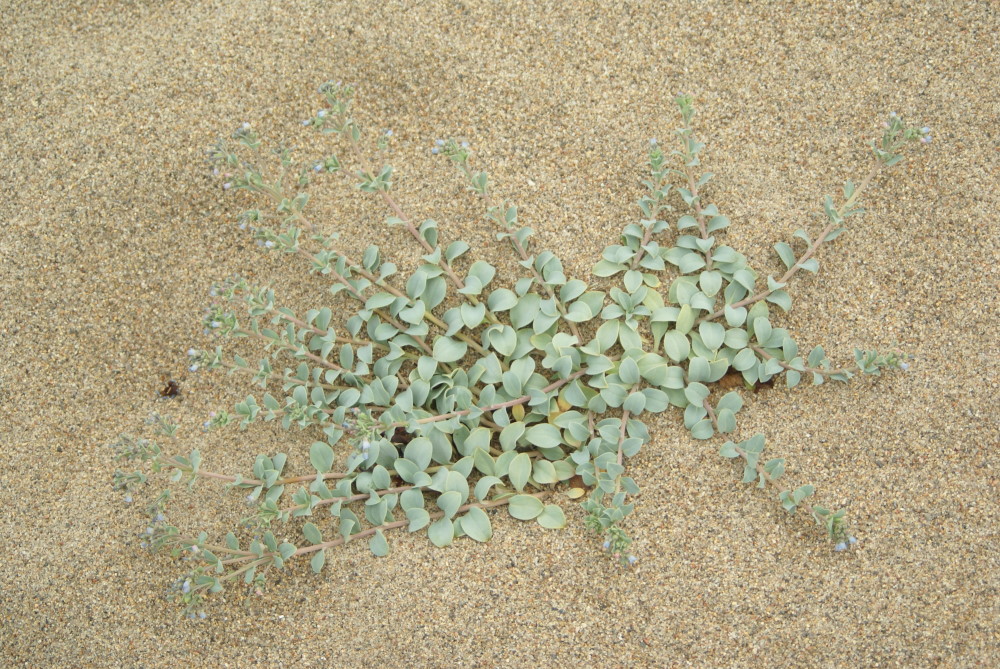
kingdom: Plantae
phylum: Tracheophyta
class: Magnoliopsida
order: Boraginales
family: Boraginaceae
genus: Mertensia
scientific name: Mertensia maritima
